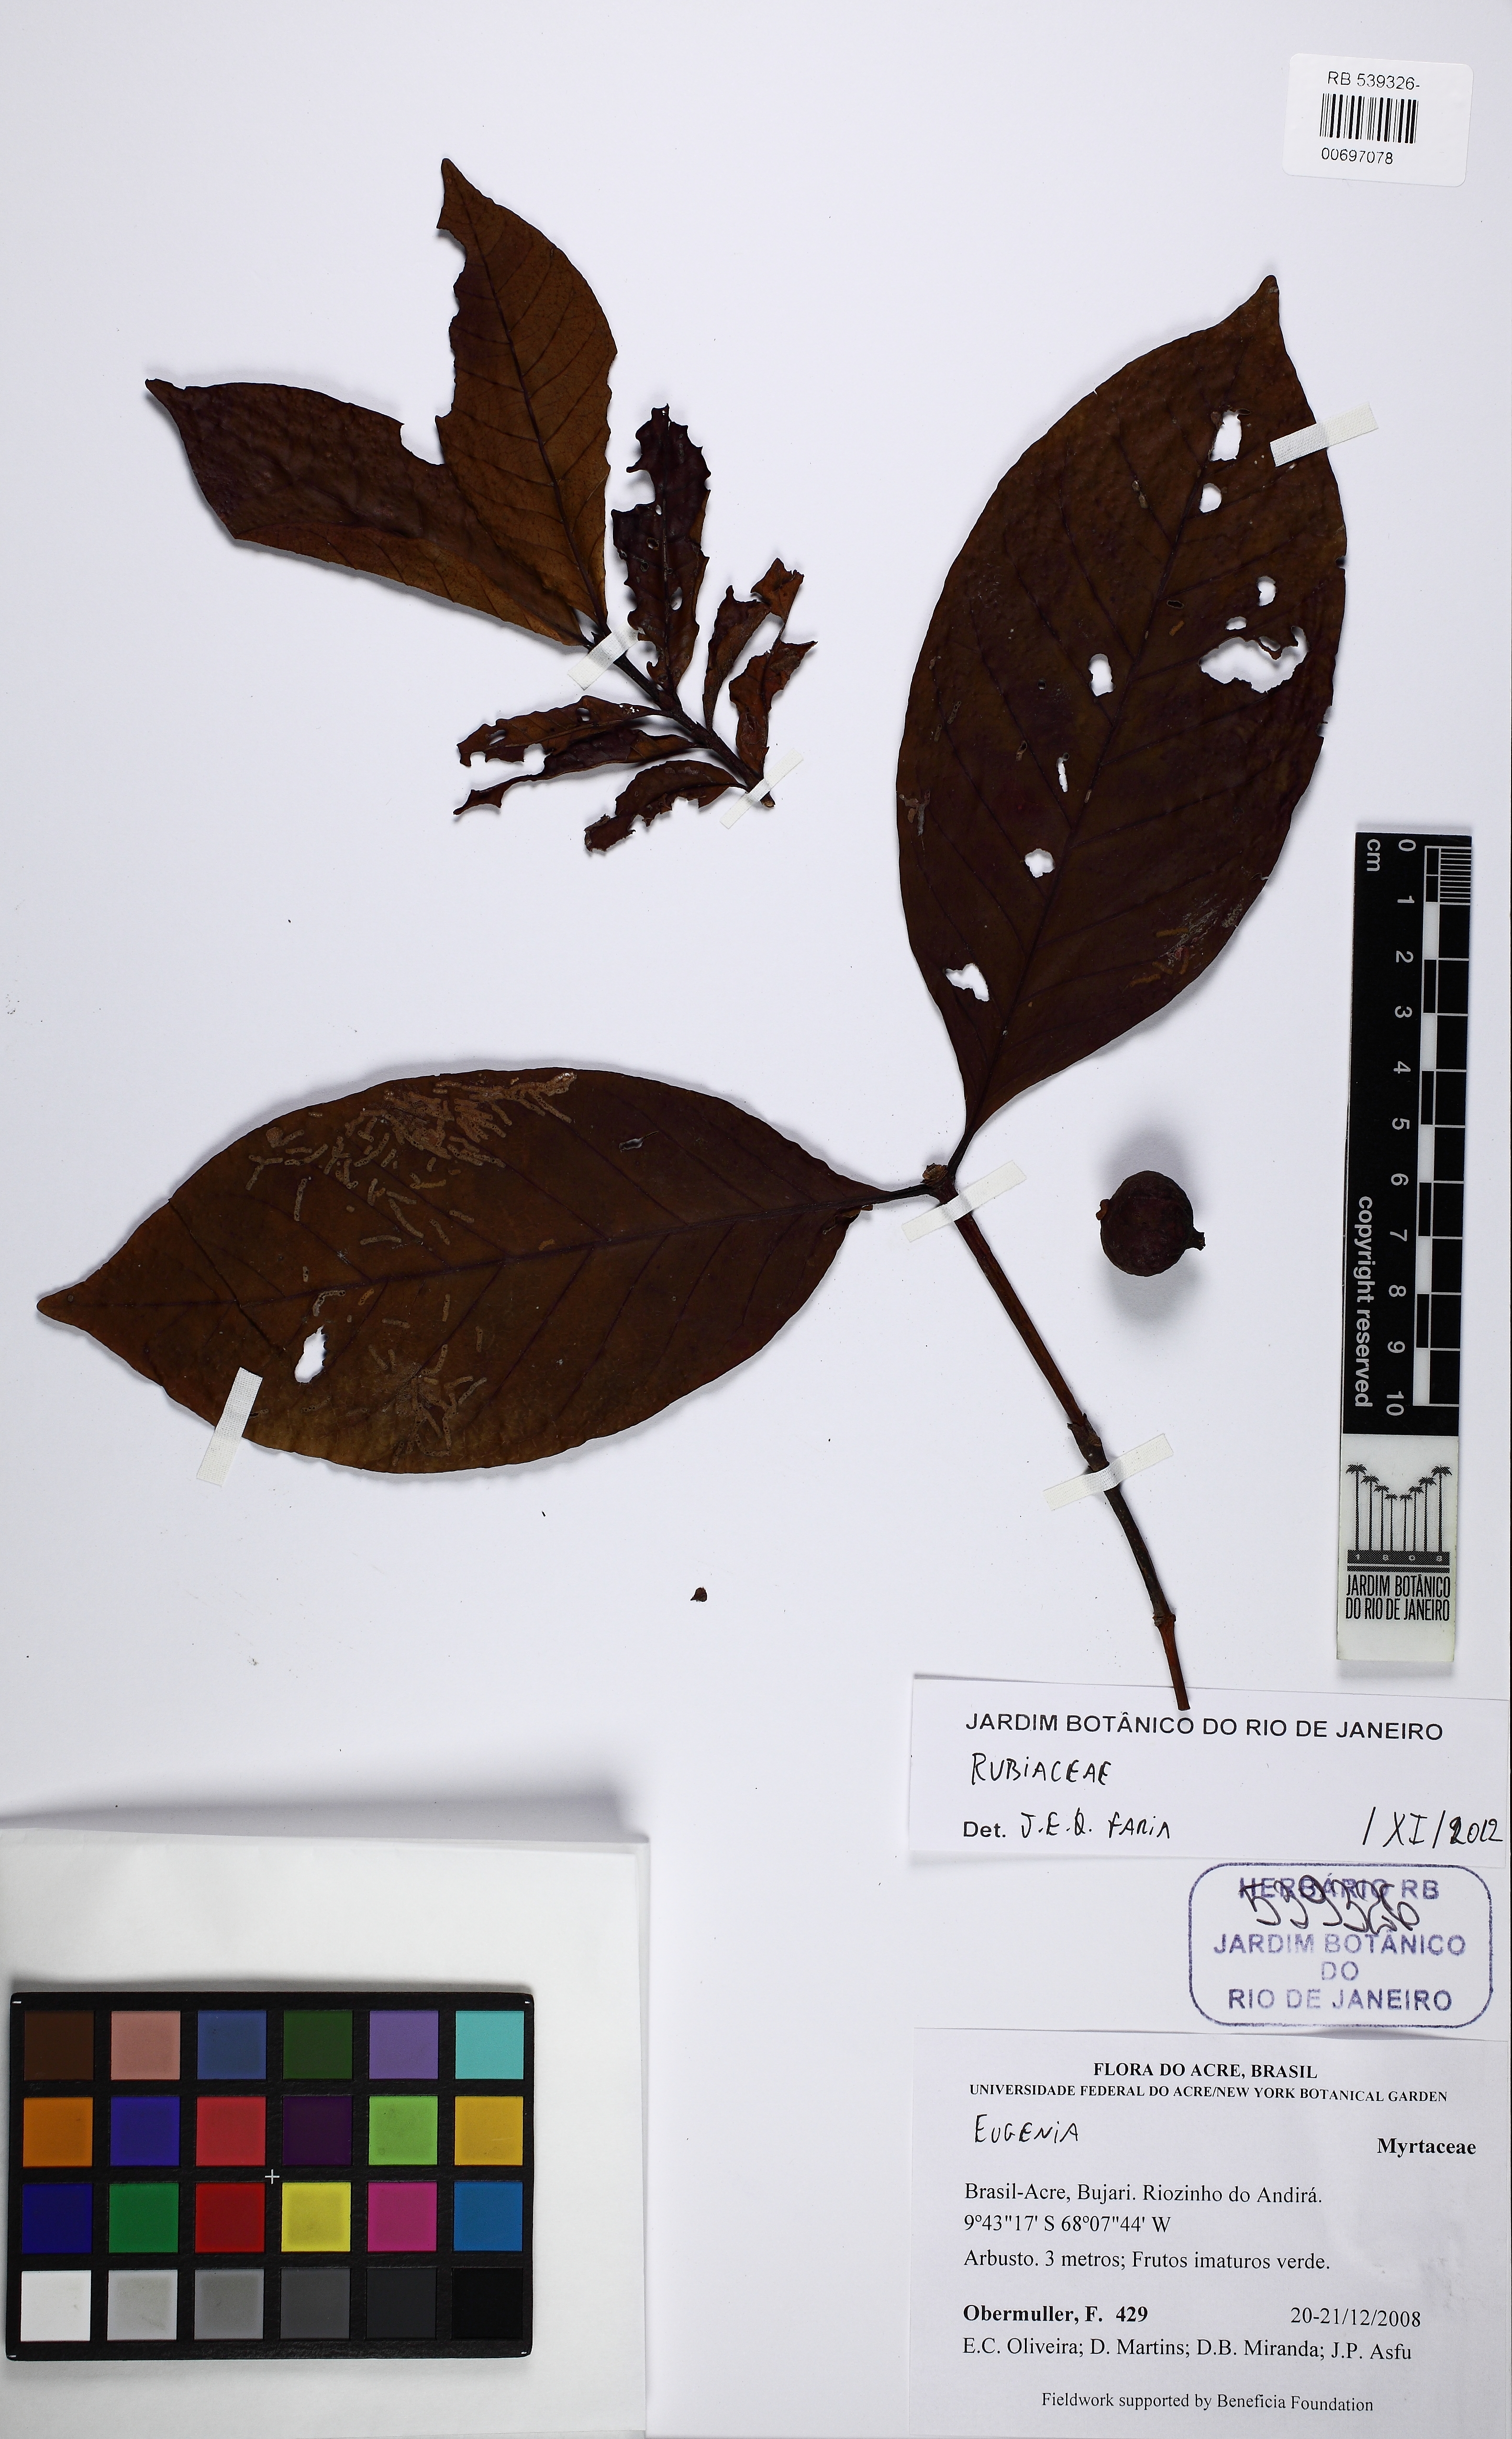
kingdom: Plantae
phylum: Tracheophyta
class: Magnoliopsida
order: Gentianales
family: Rubiaceae
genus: Alibertia
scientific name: Alibertia latifolia
